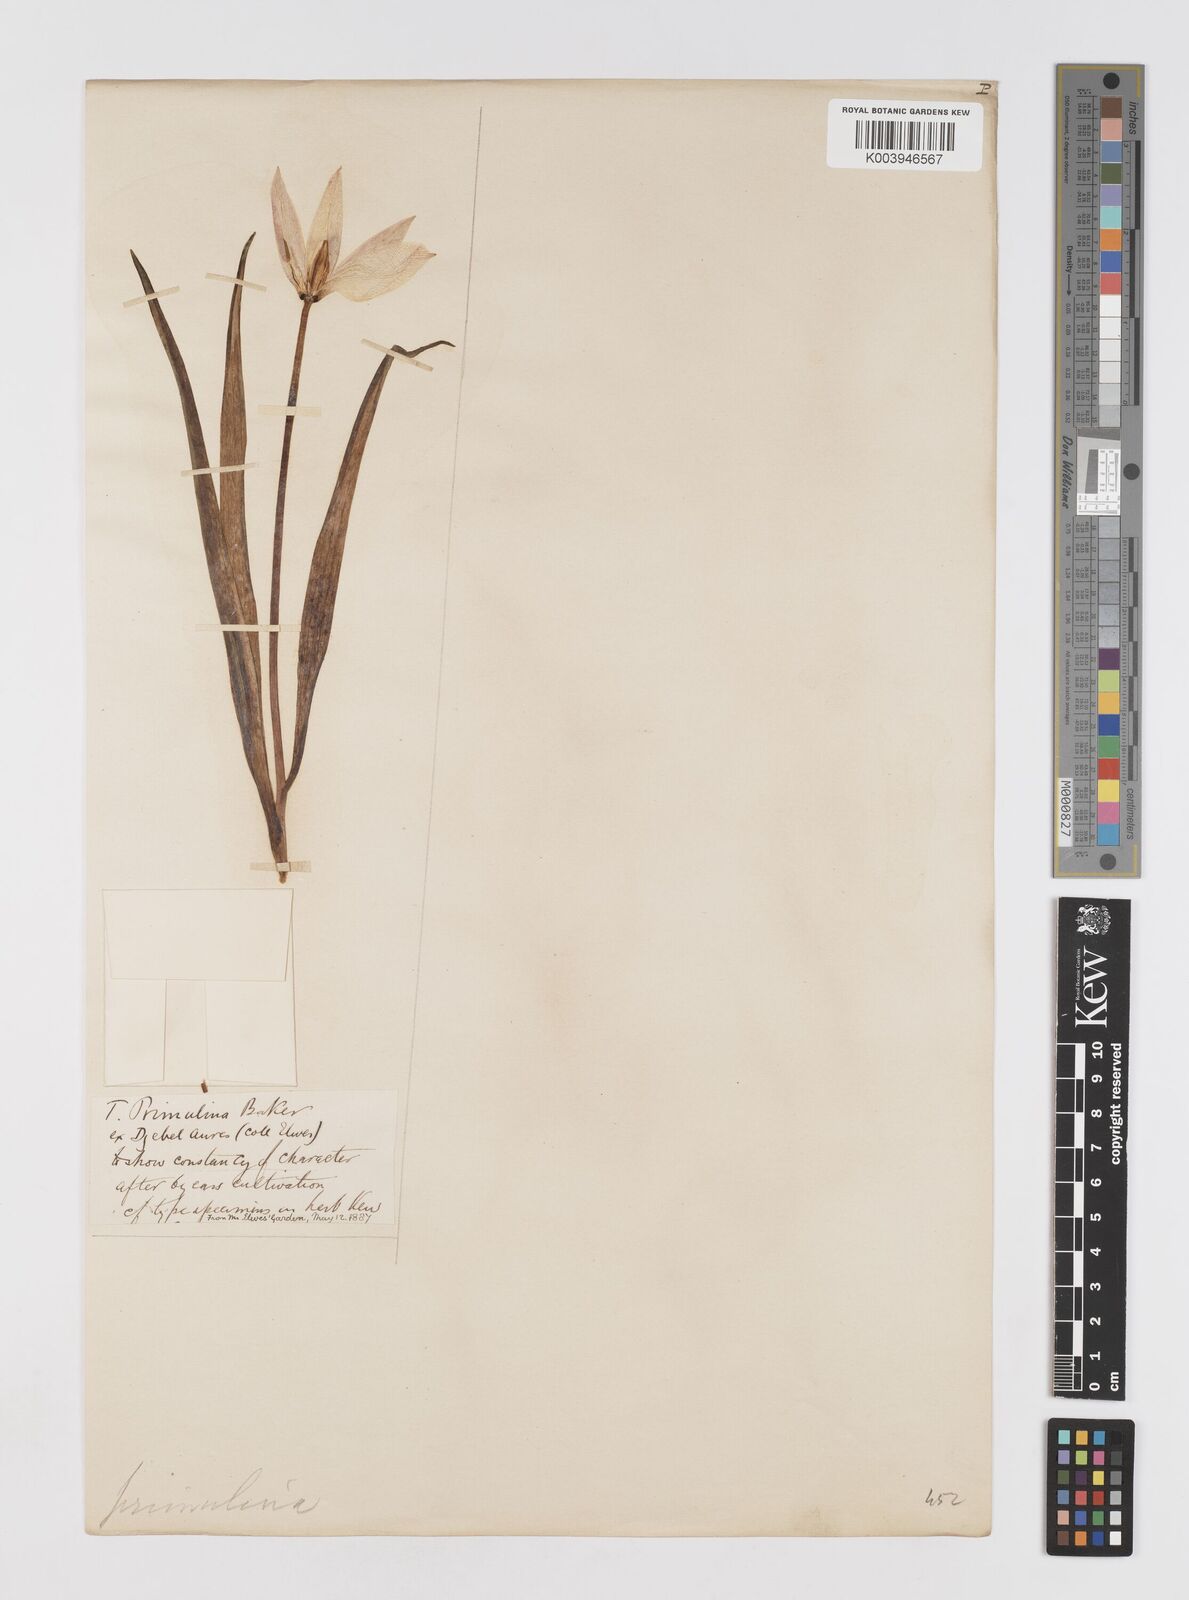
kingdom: Plantae
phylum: Tracheophyta
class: Liliopsida
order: Liliales
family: Liliaceae
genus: Tulipa
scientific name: Tulipa sylvestris
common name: Wild tulip
